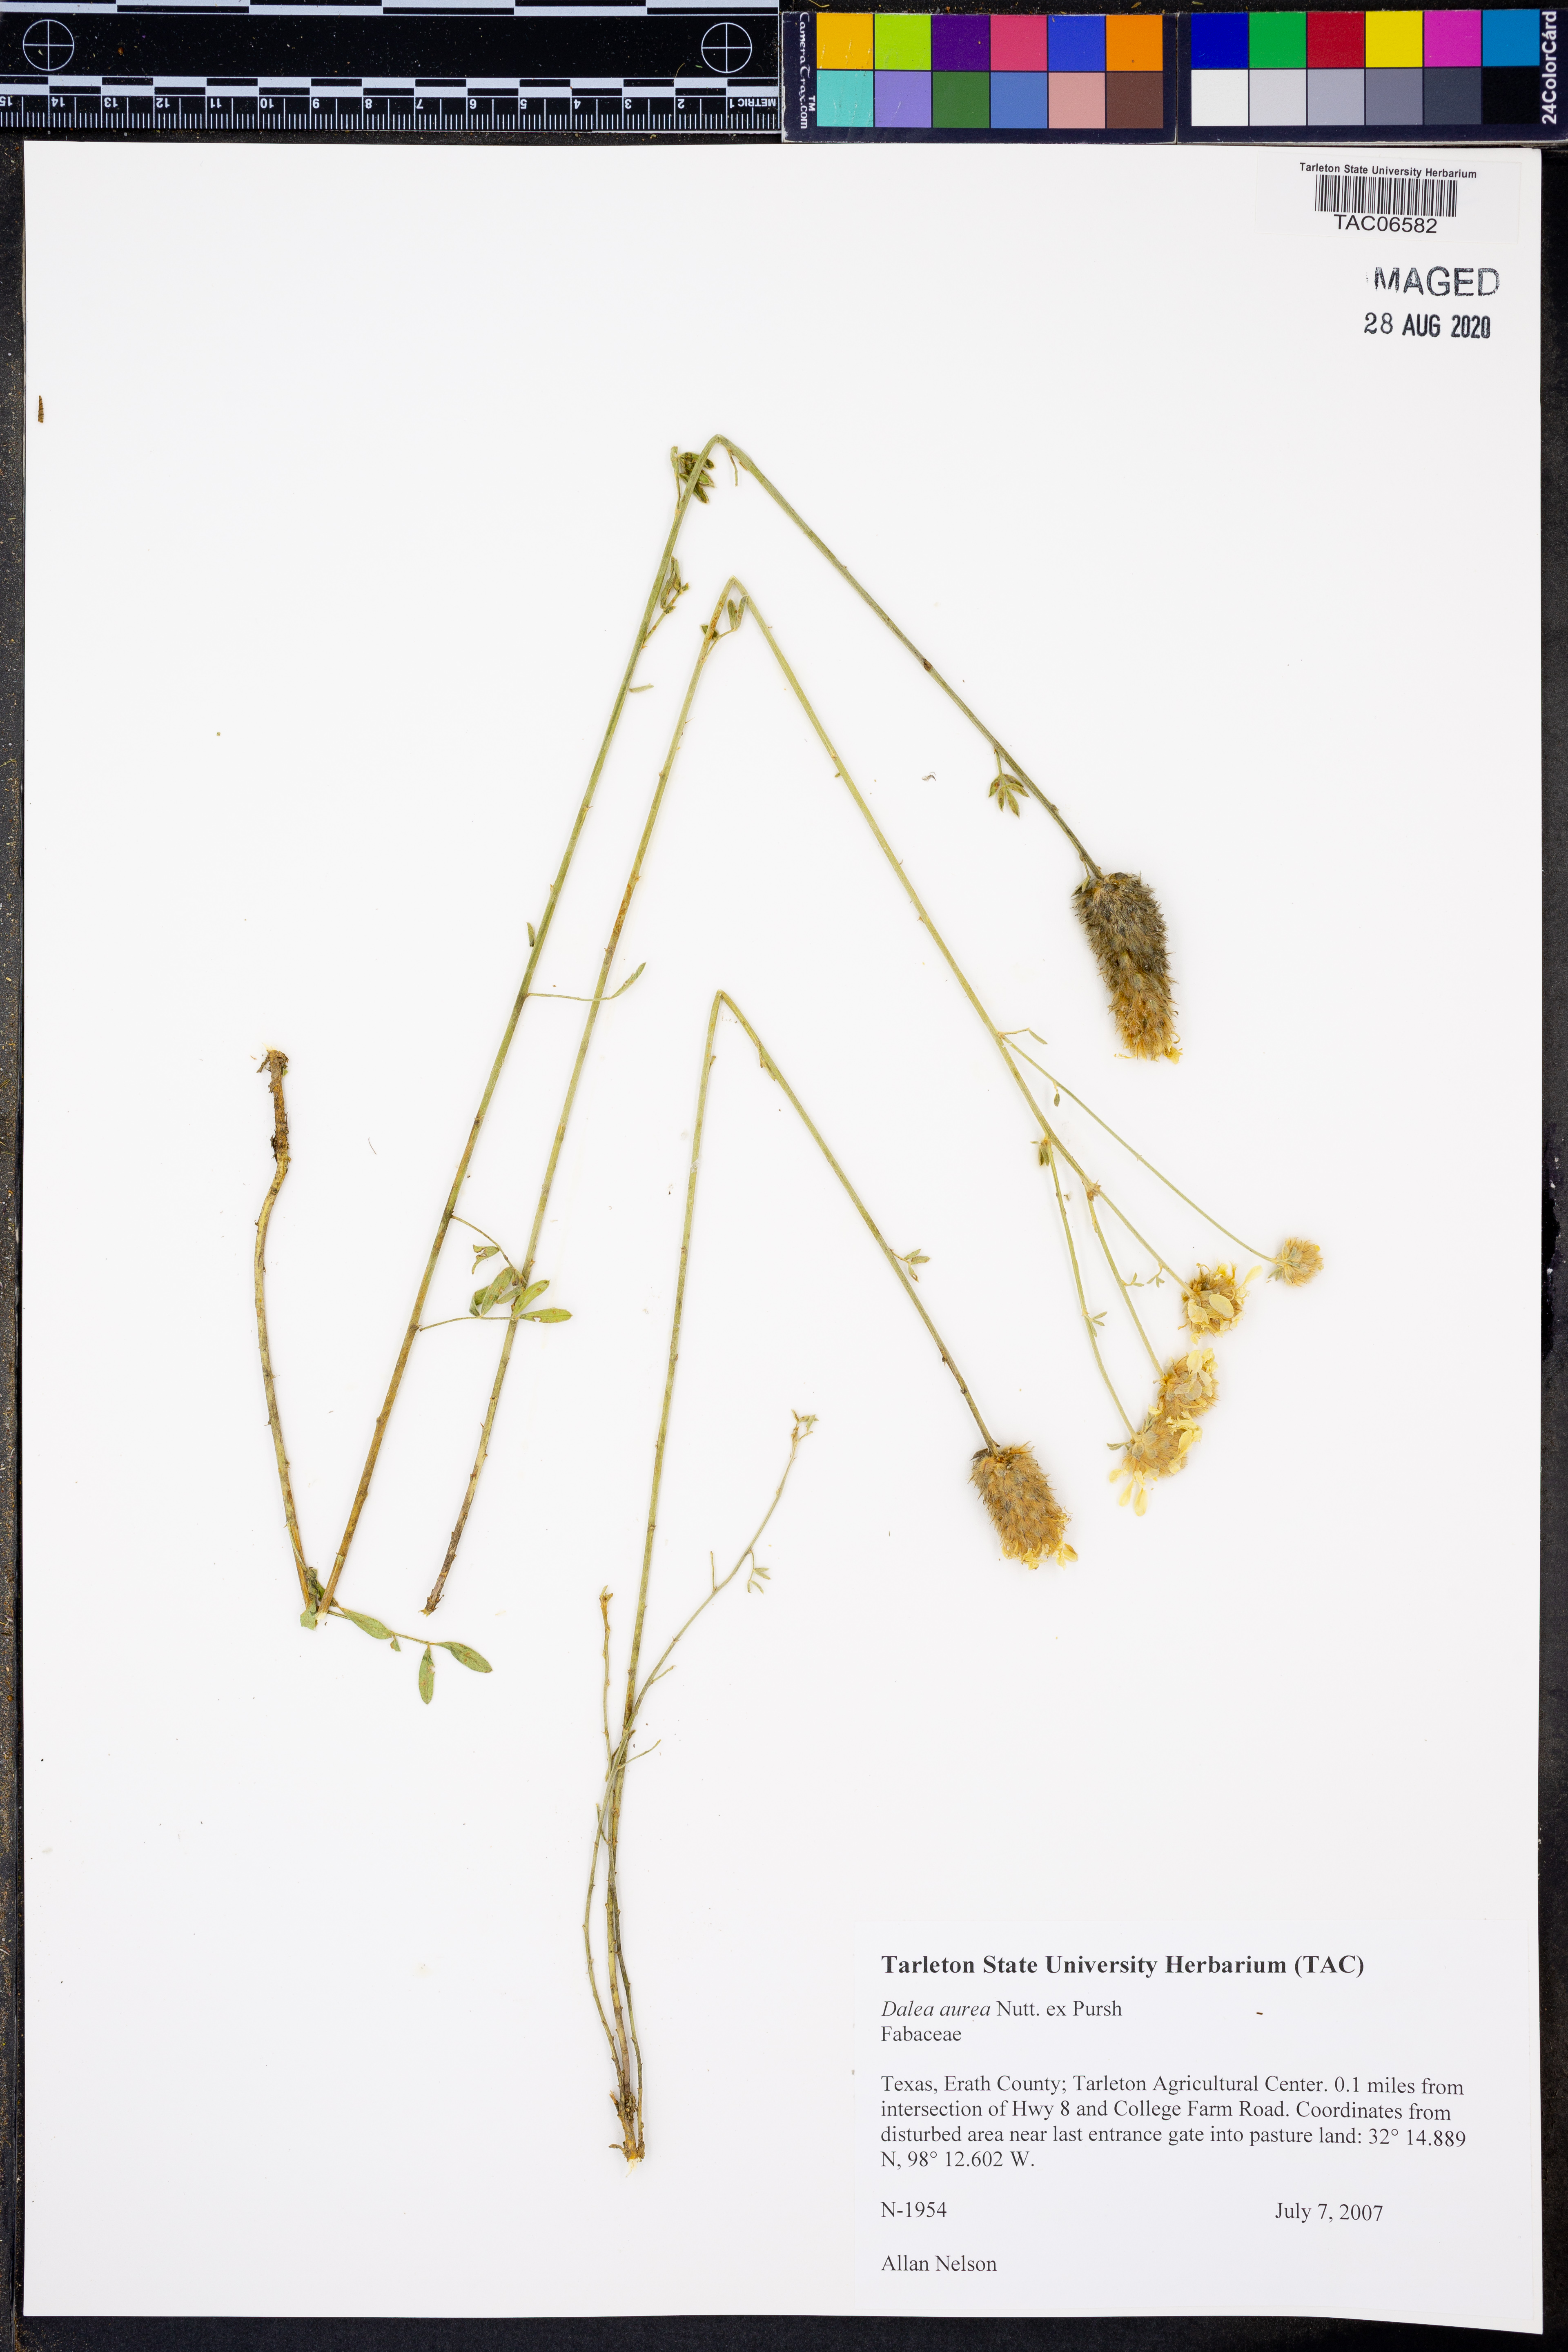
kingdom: Plantae
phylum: Tracheophyta
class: Magnoliopsida
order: Fabales
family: Fabaceae
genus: Dalea
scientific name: Dalea aurea
